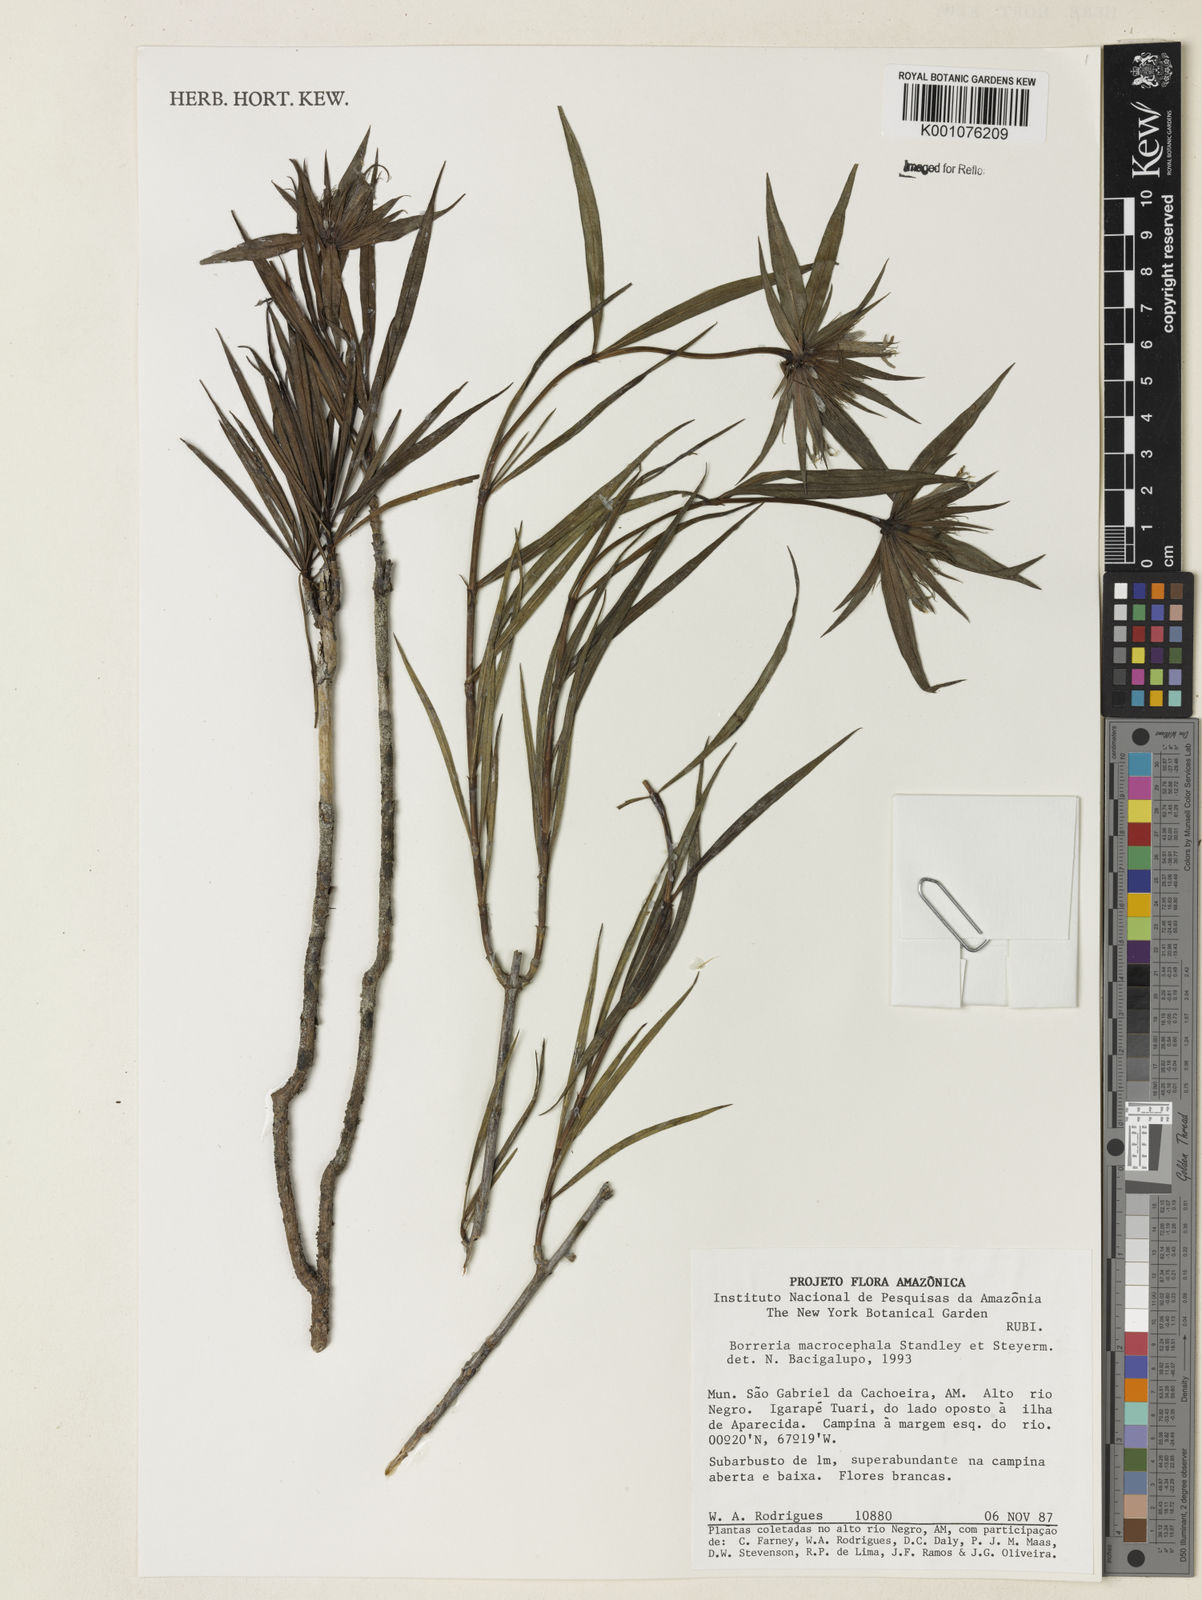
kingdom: Plantae
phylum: Tracheophyta
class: Magnoliopsida
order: Gentianales
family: Rubiaceae
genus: Spermacoce
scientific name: Spermacoce macrocephala
